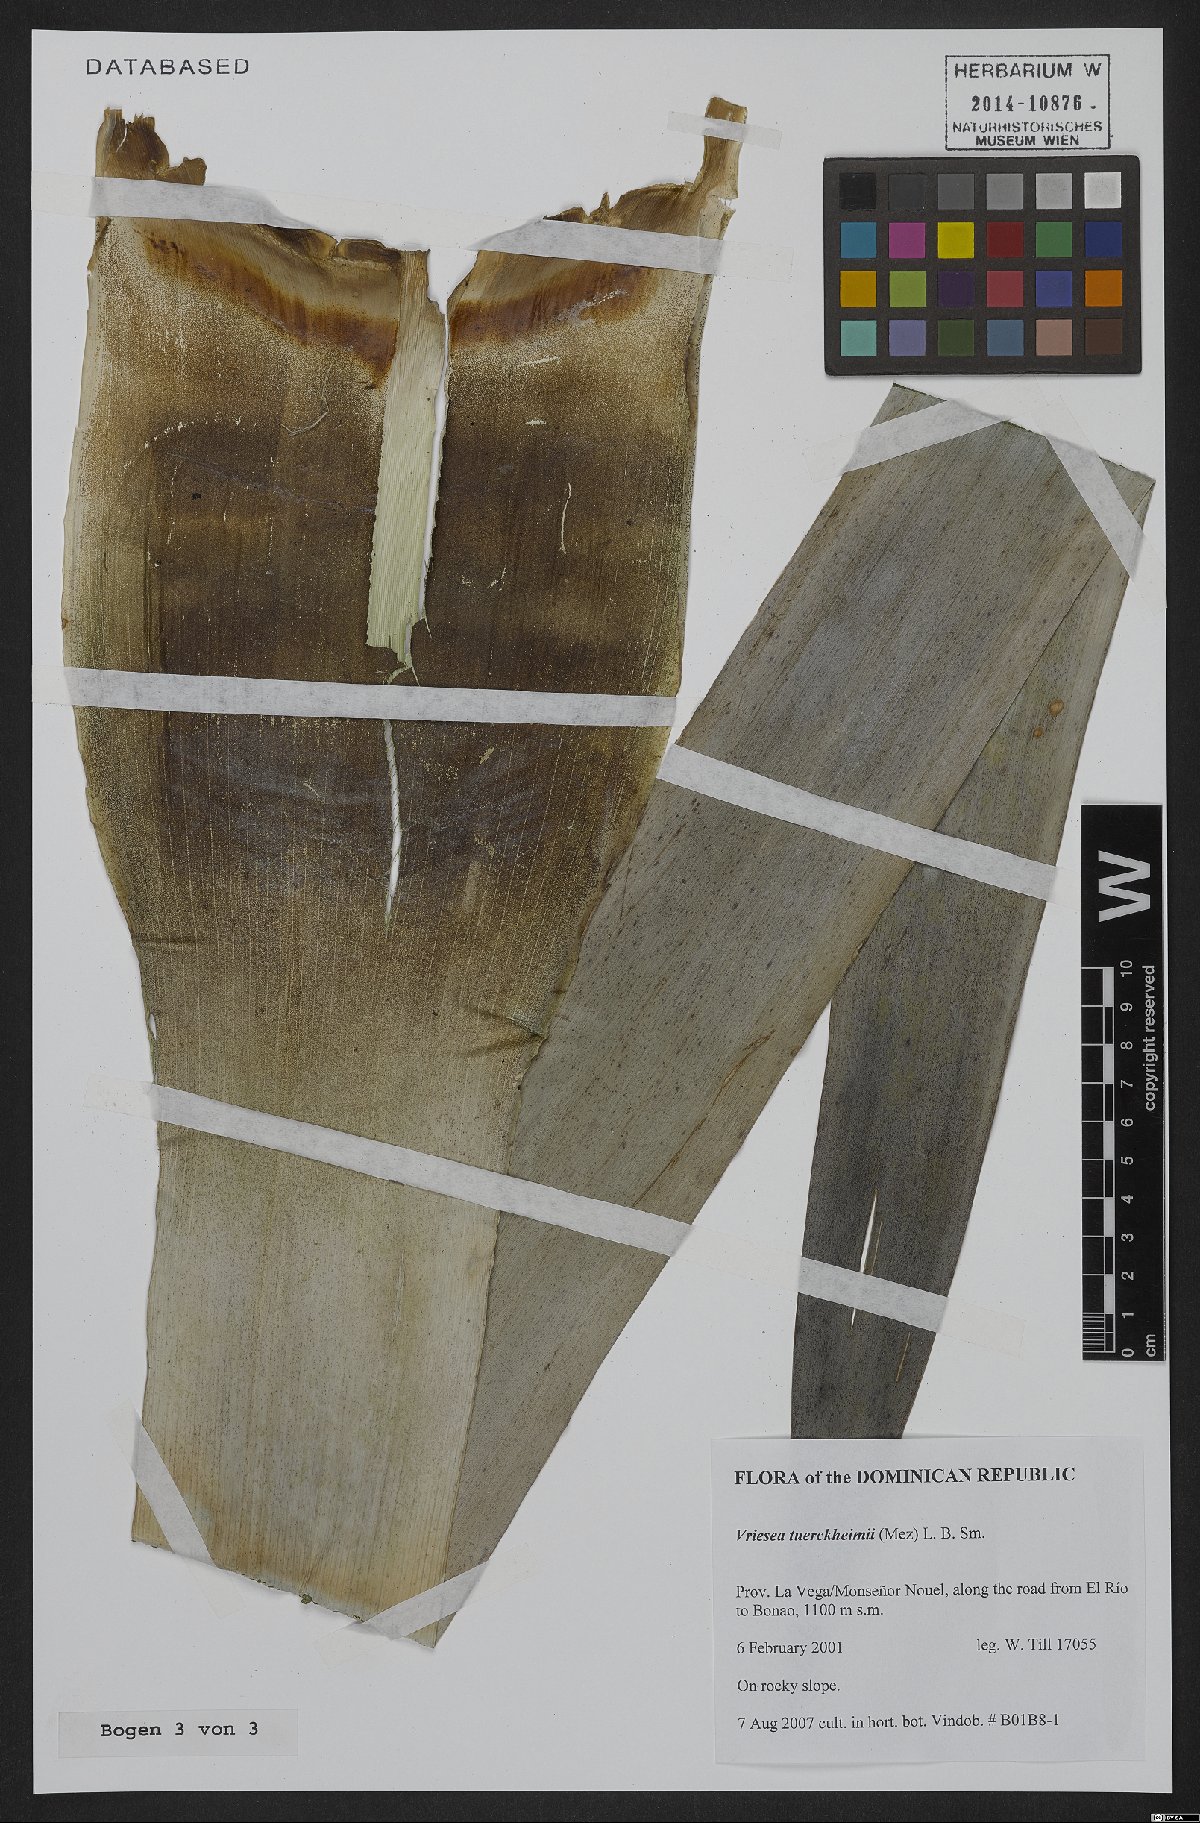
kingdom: Plantae
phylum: Tracheophyta
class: Liliopsida
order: Poales
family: Bromeliaceae
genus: Zizkaea
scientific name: Zizkaea tuerckheimii
